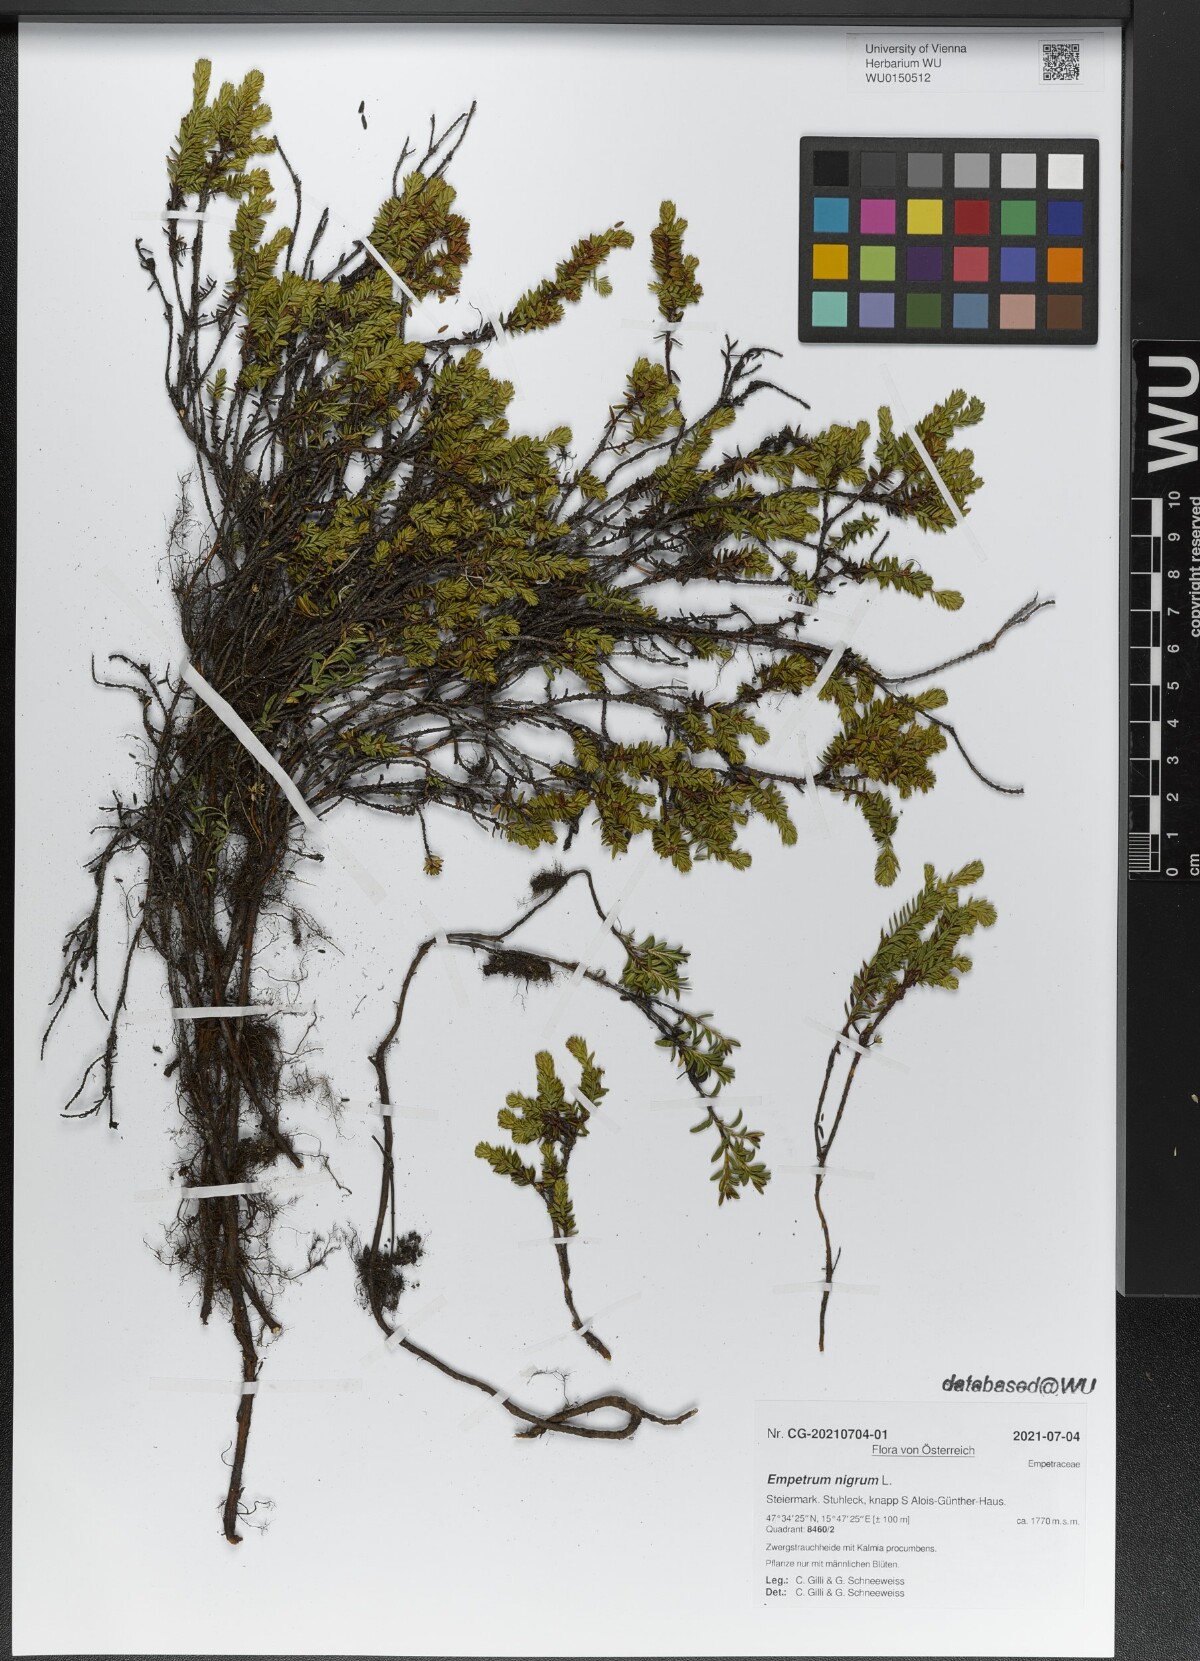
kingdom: Plantae
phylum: Tracheophyta
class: Magnoliopsida
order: Ericales
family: Ericaceae
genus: Empetrum
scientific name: Empetrum nigrum
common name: Black crowberry
